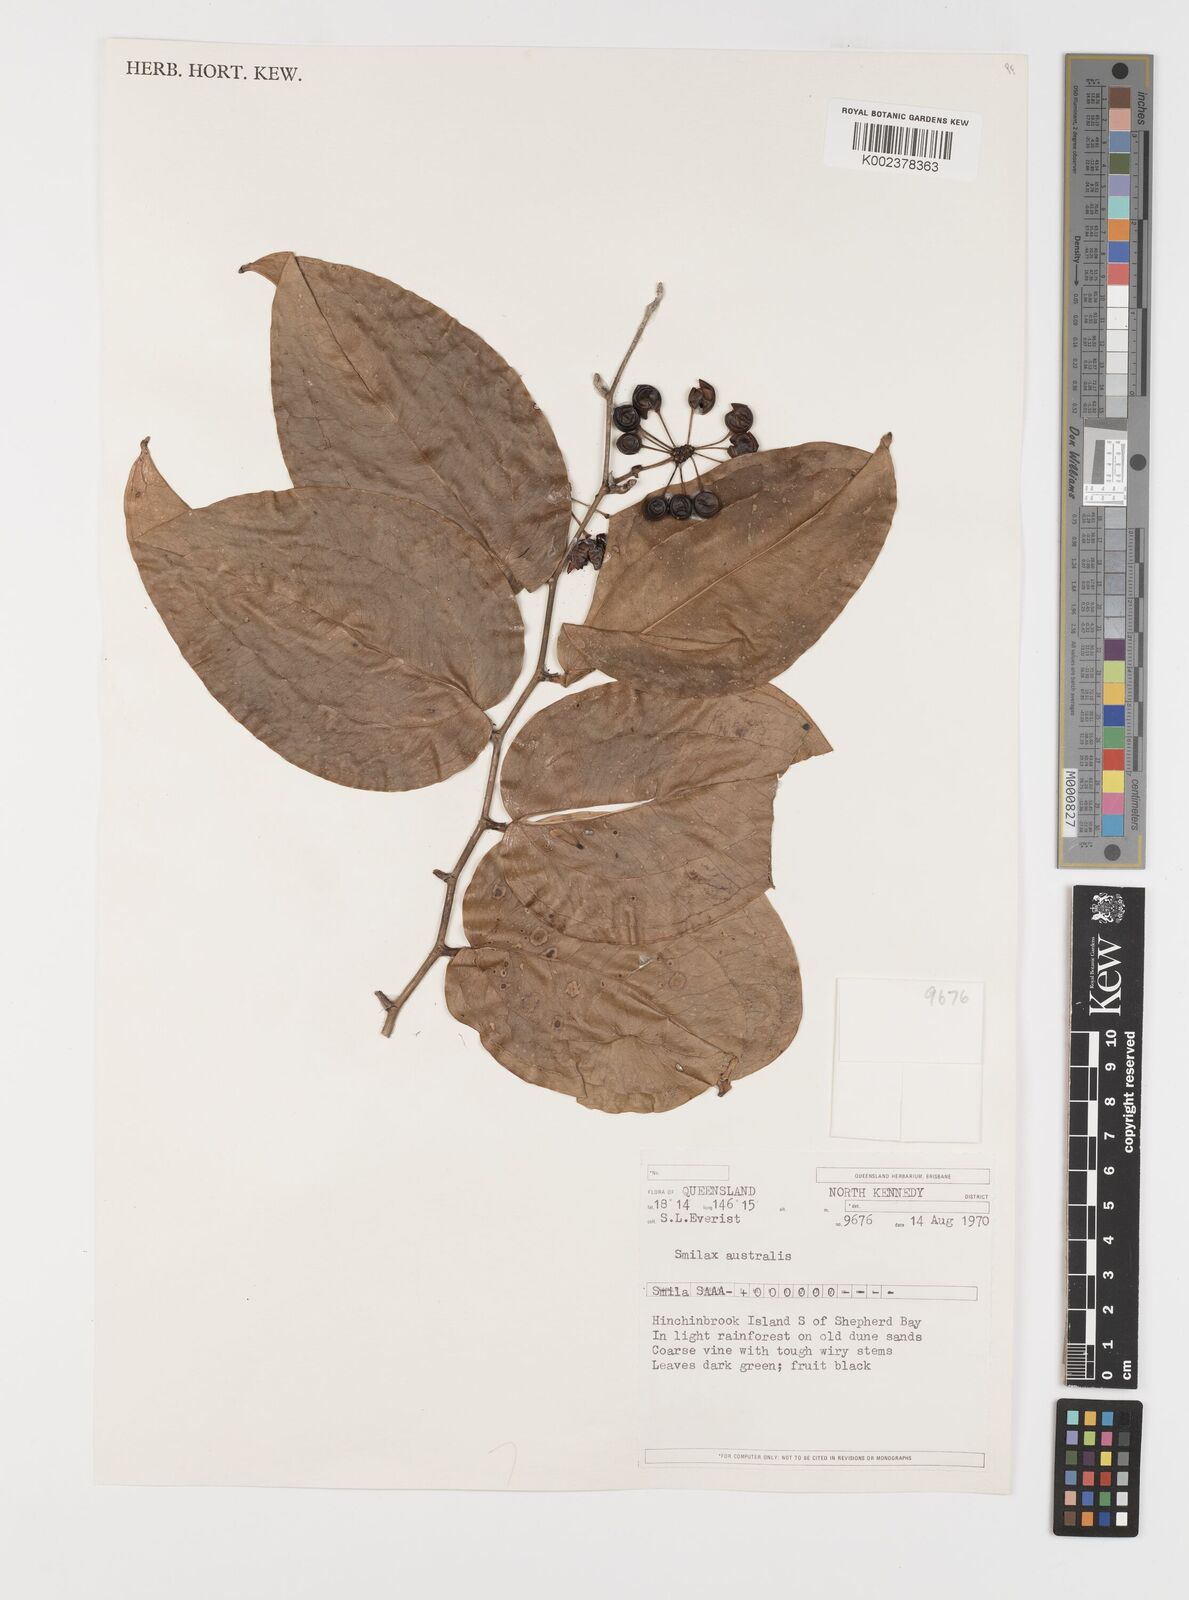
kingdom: Plantae
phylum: Tracheophyta
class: Liliopsida
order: Liliales
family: Smilacaceae
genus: Smilax
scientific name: Smilax australis
